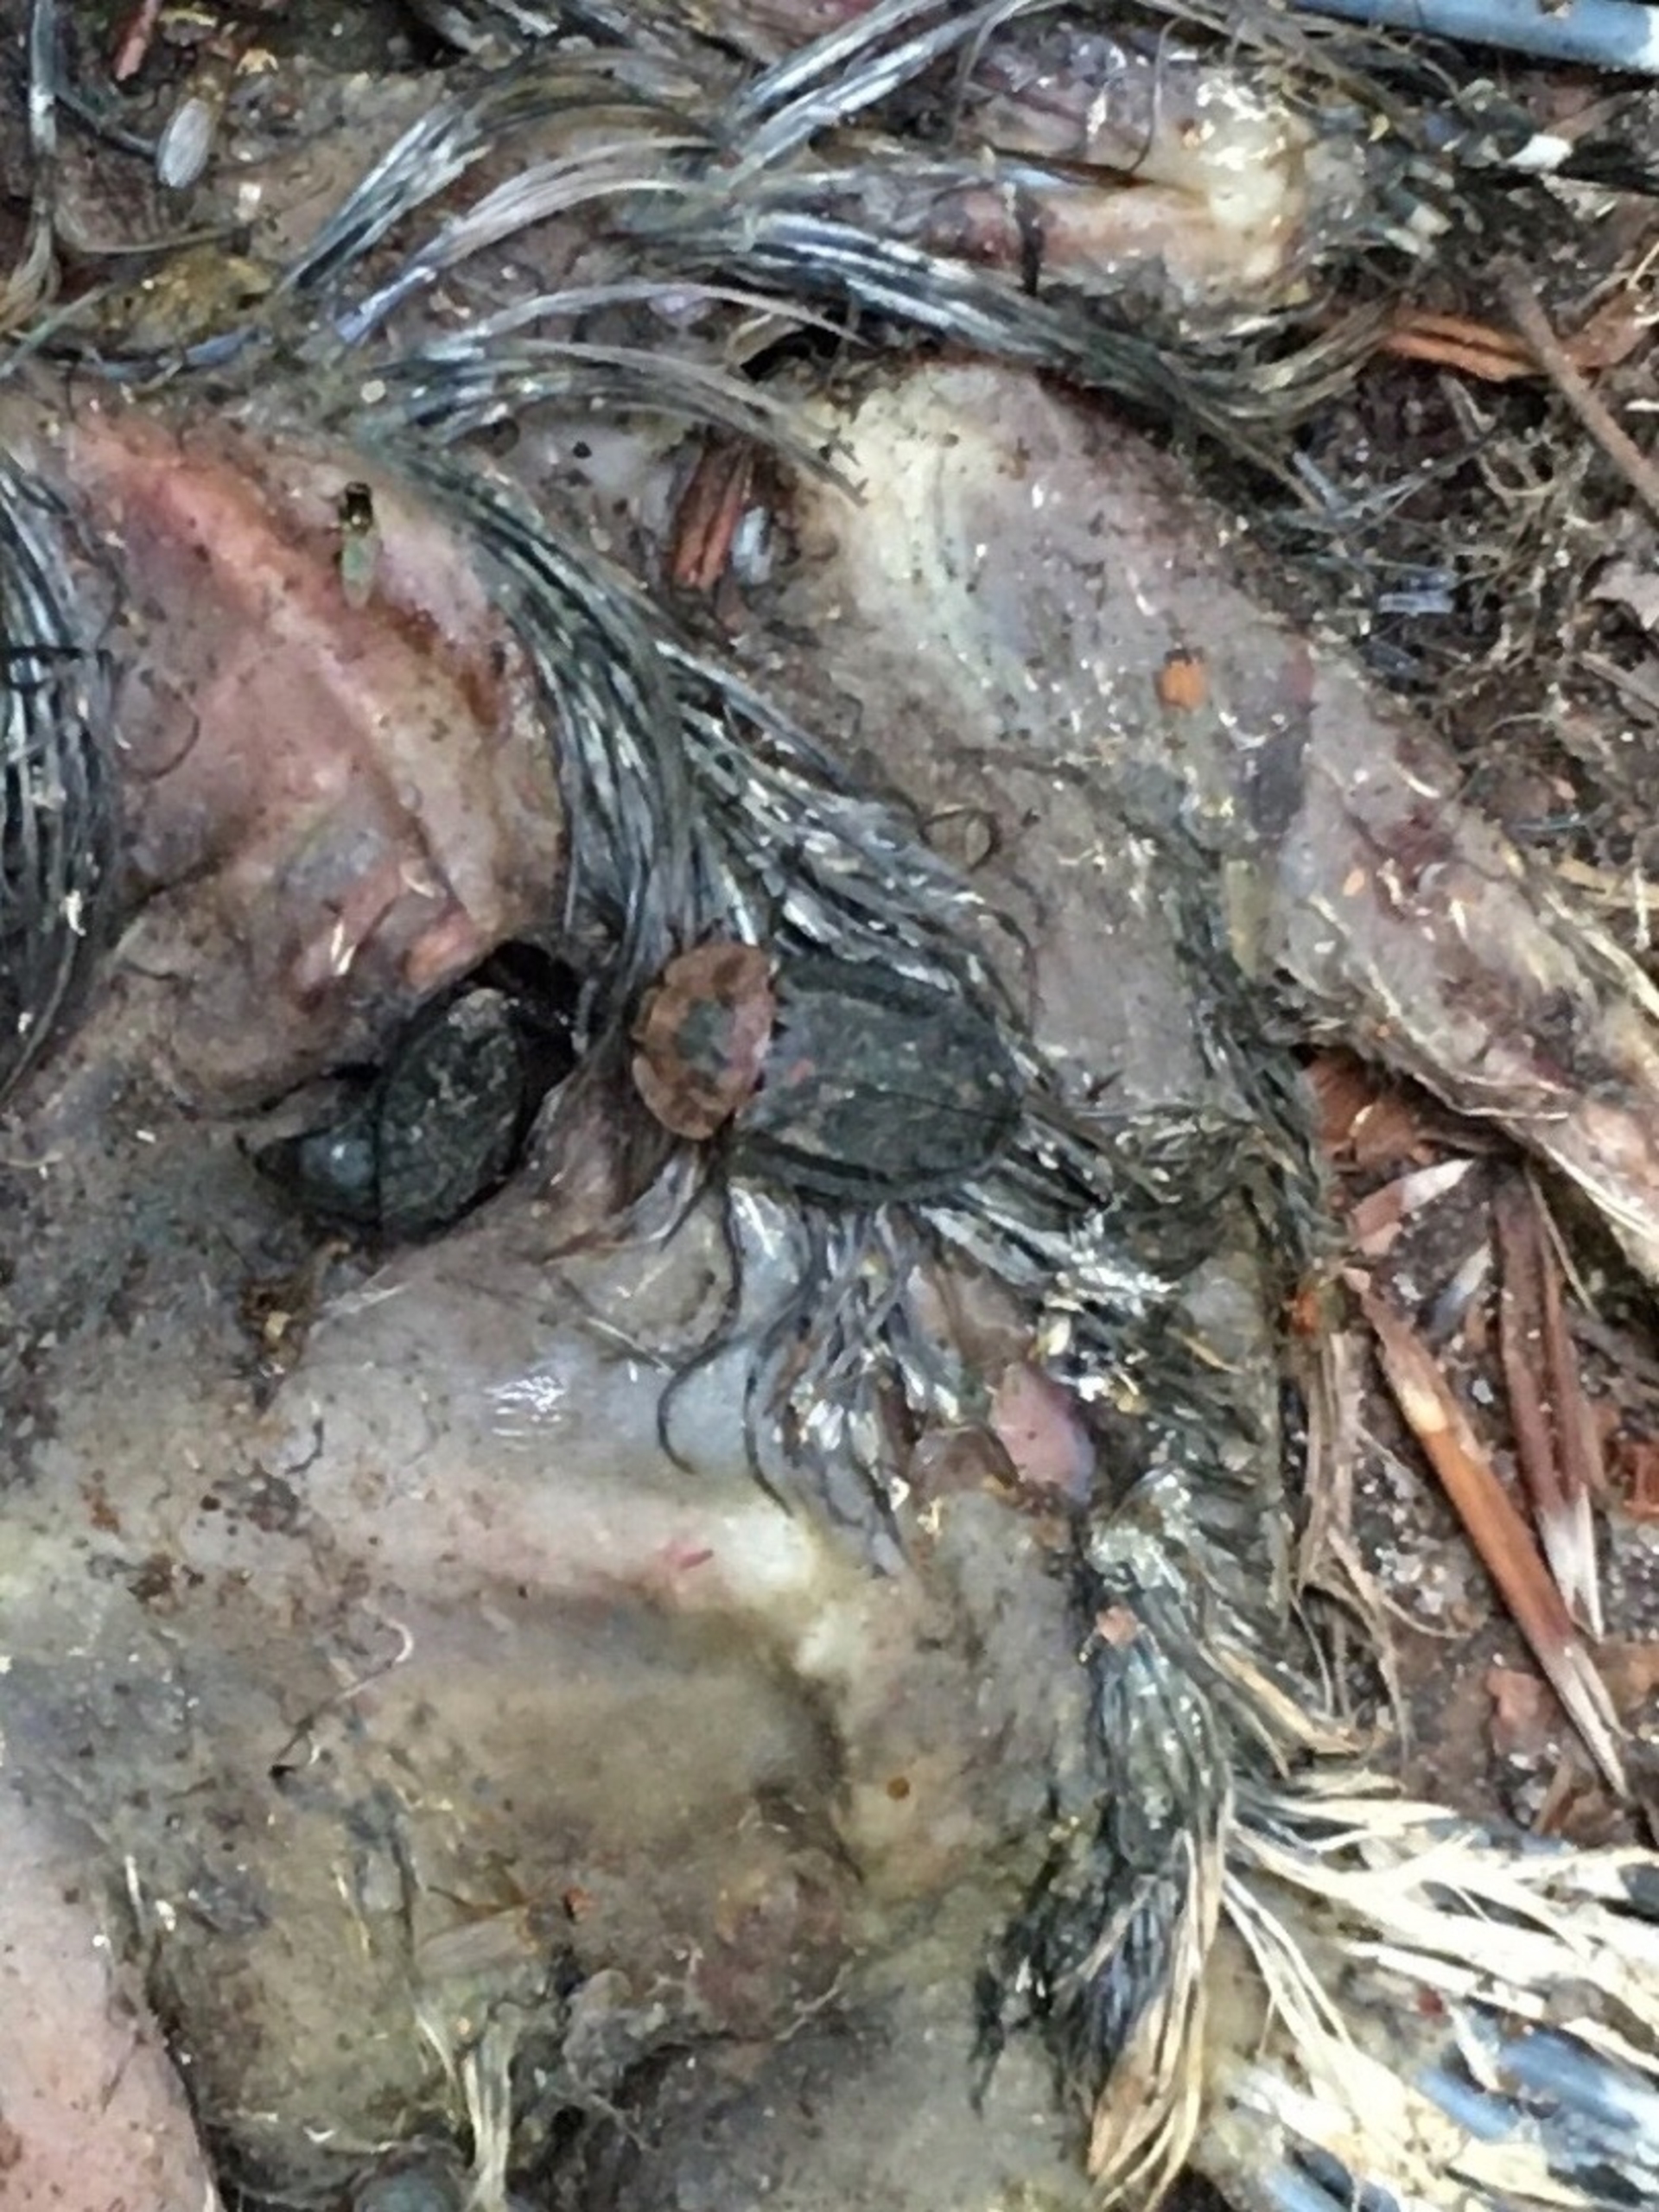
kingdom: Animalia
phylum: Arthropoda
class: Insecta
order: Coleoptera
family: Staphylinidae
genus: Oiceoptoma
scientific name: Oiceoptoma thoracicum
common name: Rødbrystet ådselbille
